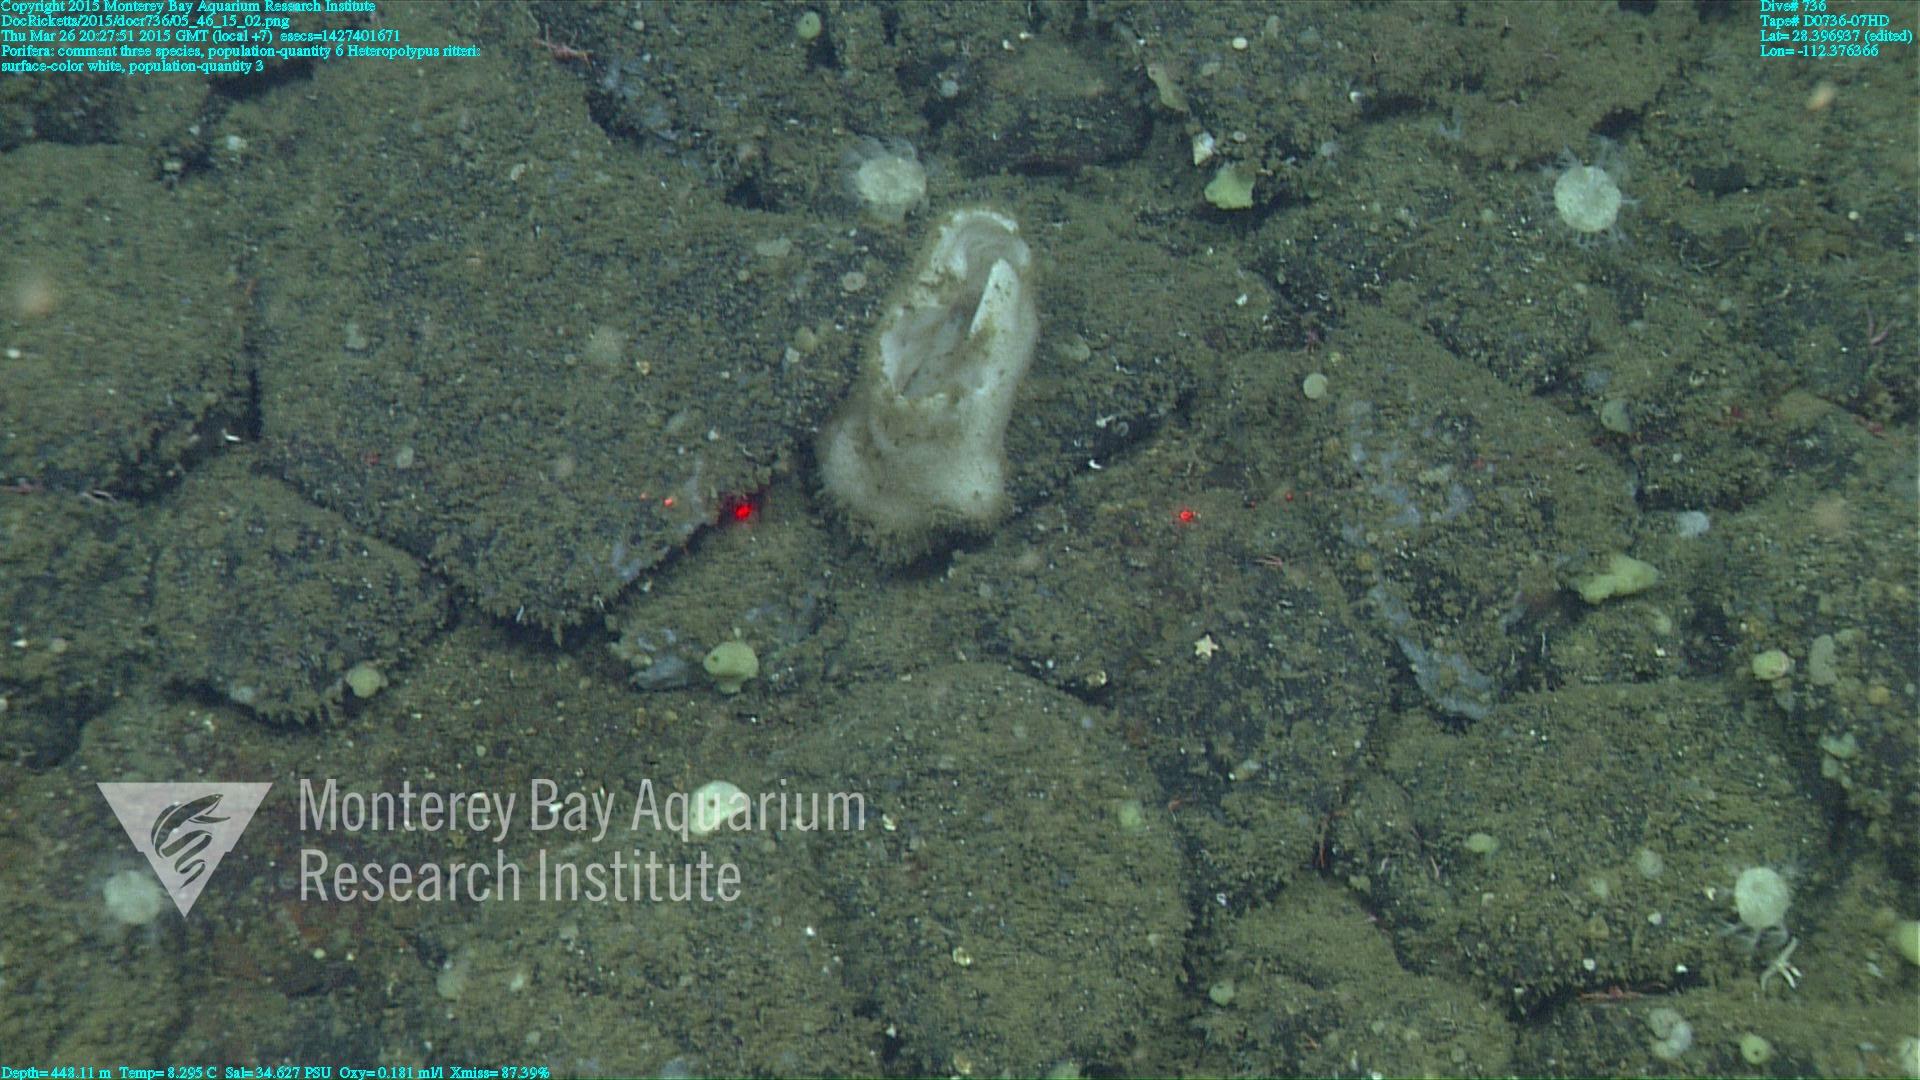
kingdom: Animalia
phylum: Cnidaria
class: Anthozoa
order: Scleralcyonacea
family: Coralliidae
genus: Heteropolypus
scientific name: Heteropolypus ritteri
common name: Ritter's soft coral
